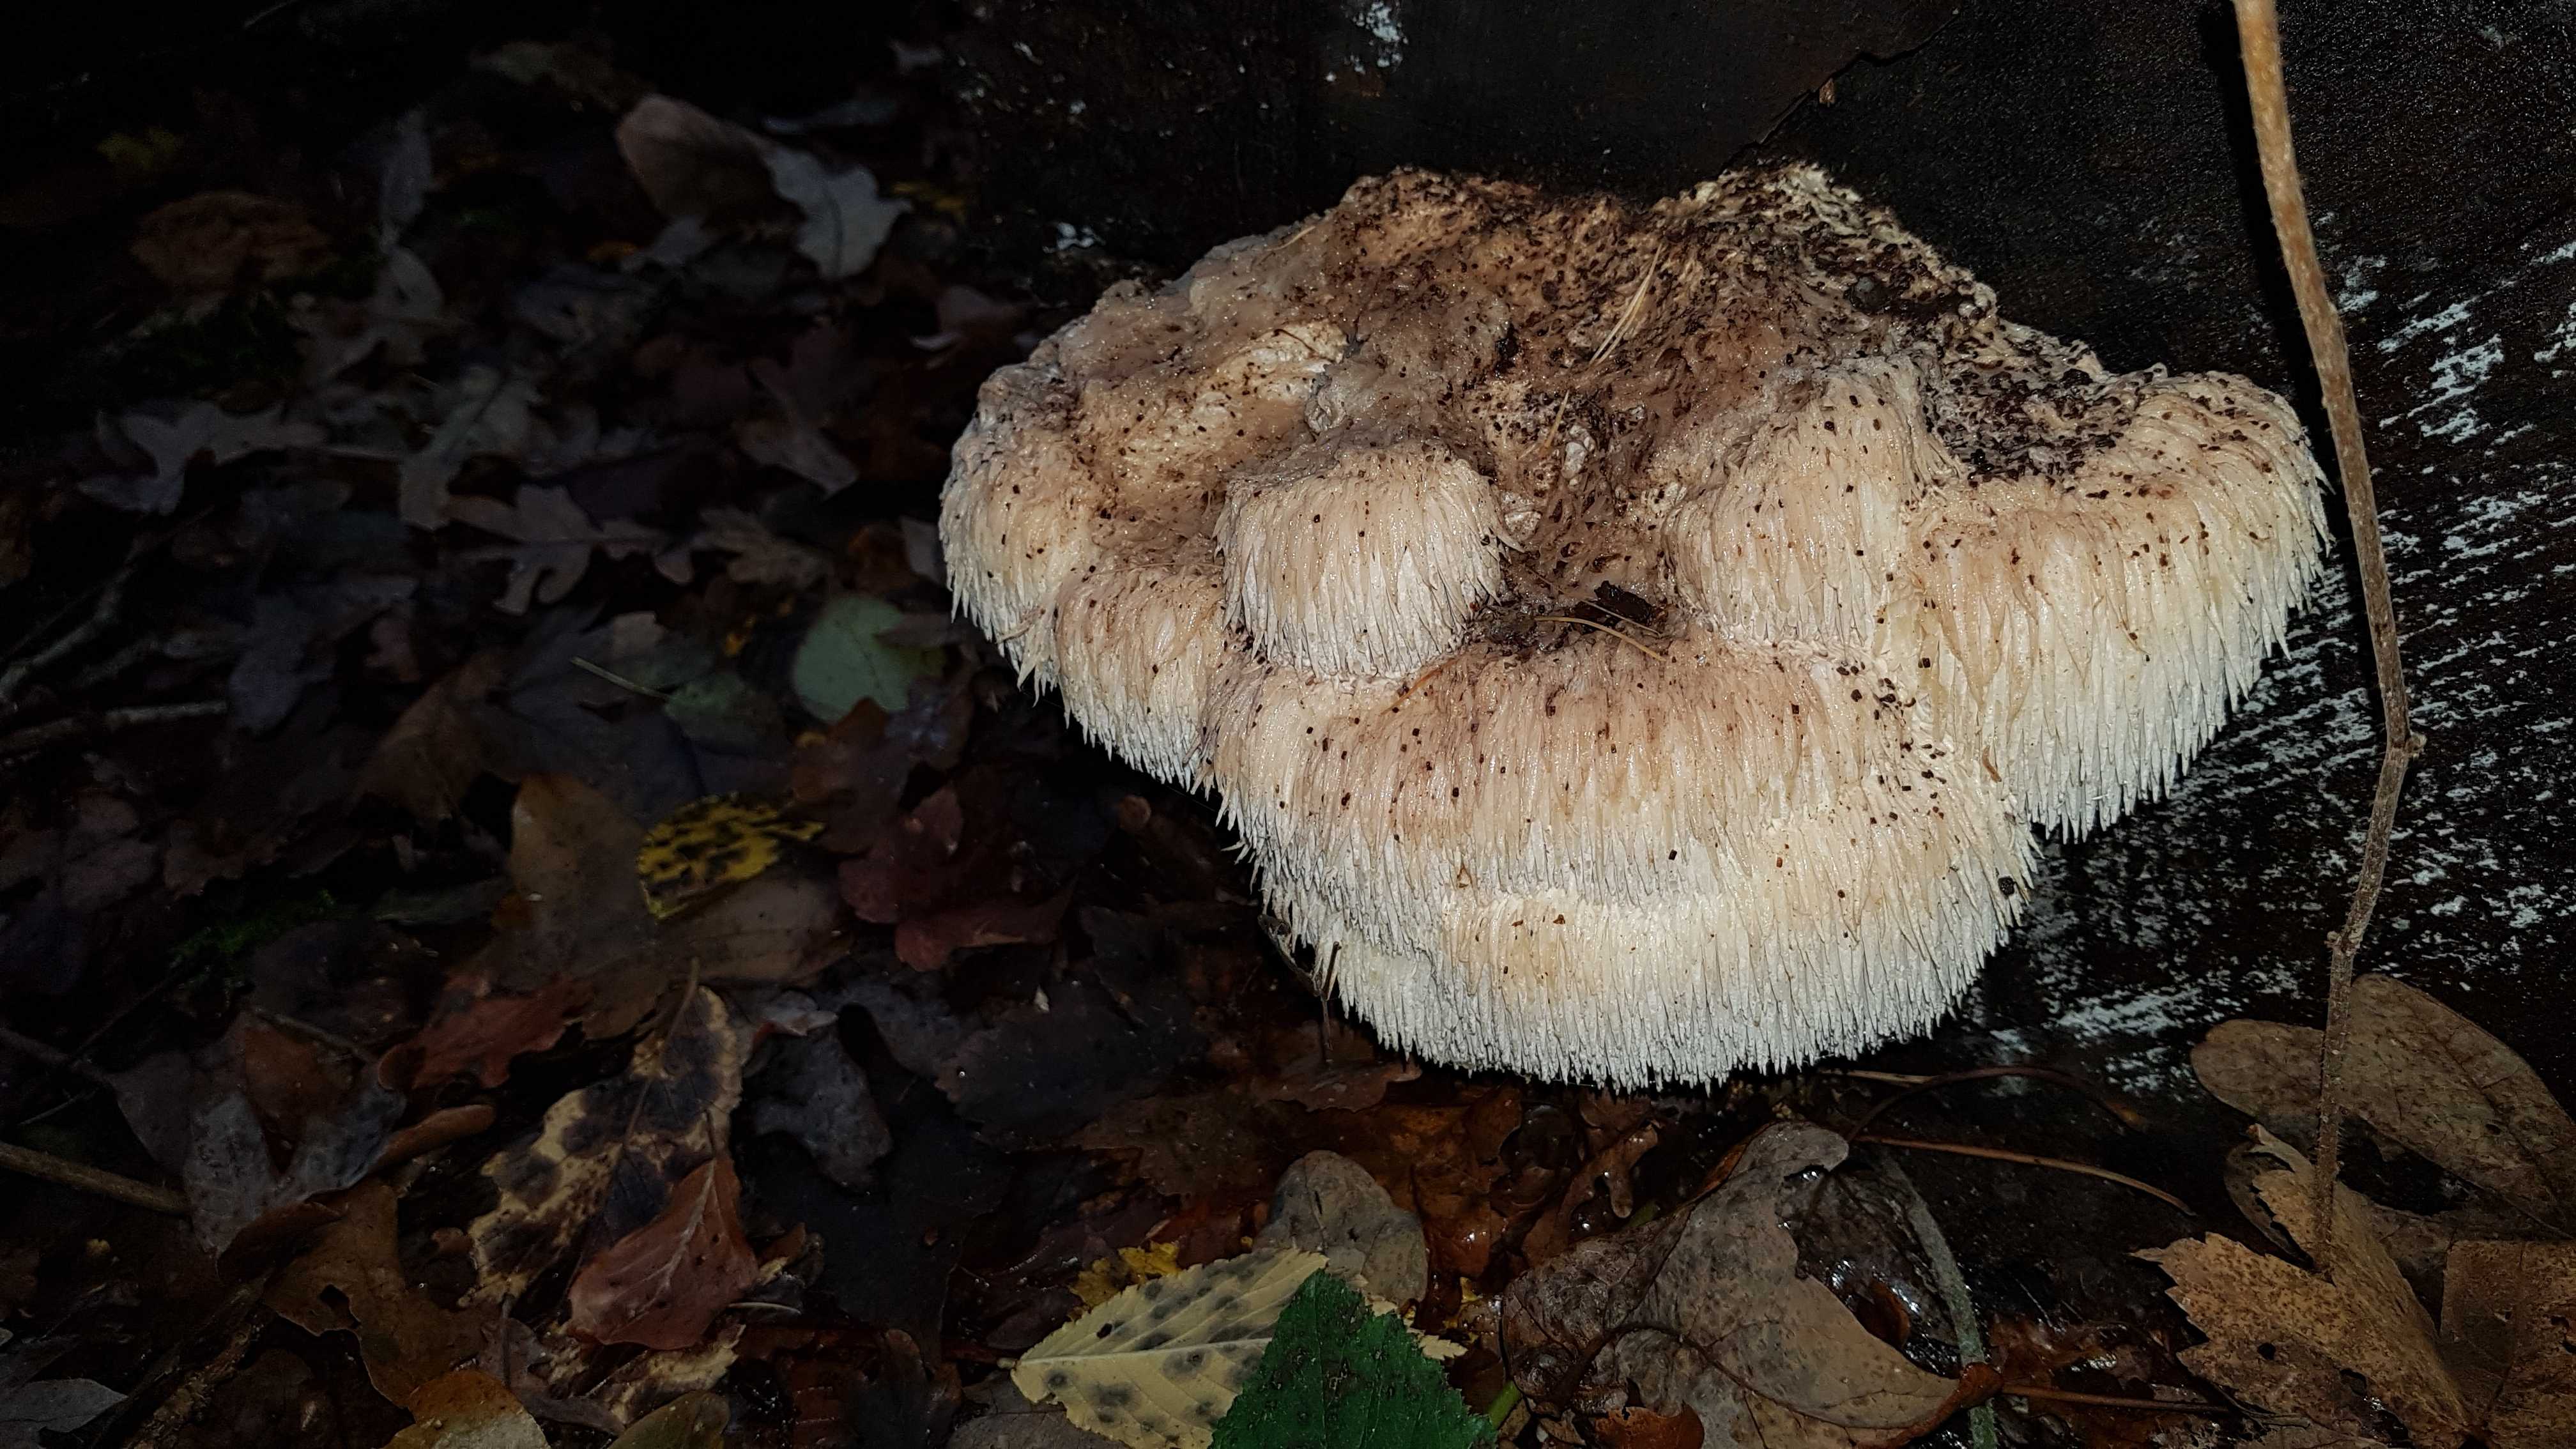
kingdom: Fungi
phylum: Basidiomycota
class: Agaricomycetes
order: Russulales
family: Hericiaceae
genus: Hericium
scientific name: Hericium erinaceus
